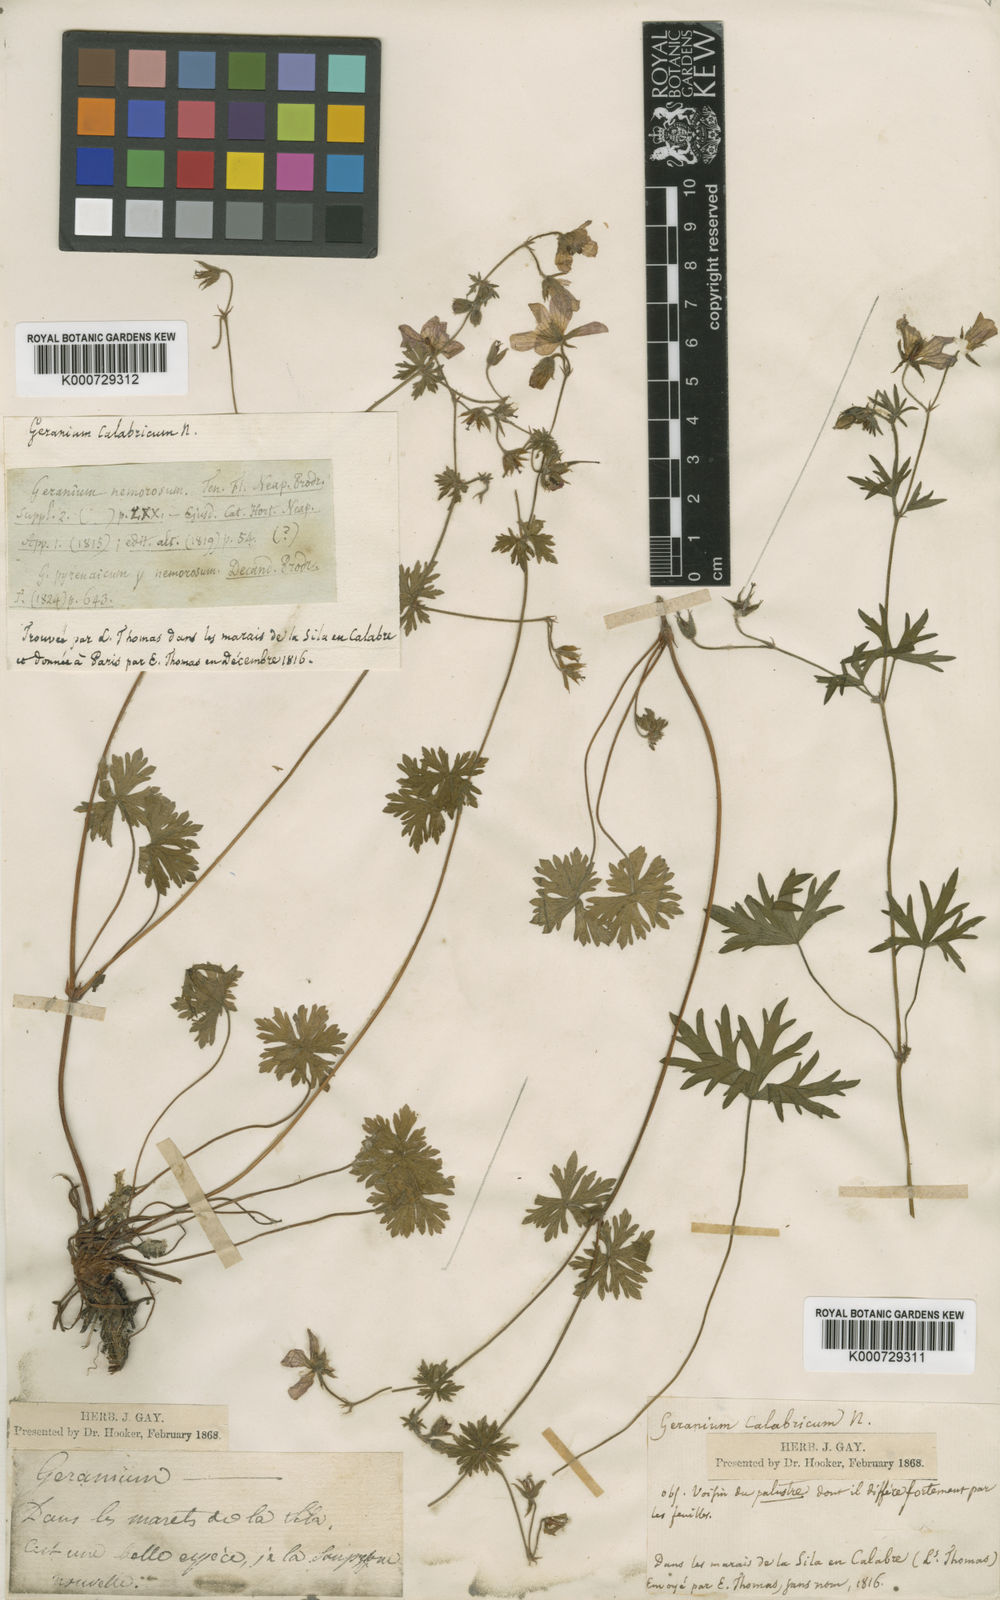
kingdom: Plantae
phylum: Tracheophyta
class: Magnoliopsida
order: Geraniales
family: Geraniaceae
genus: Geranium
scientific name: Geranium asphodeloides
